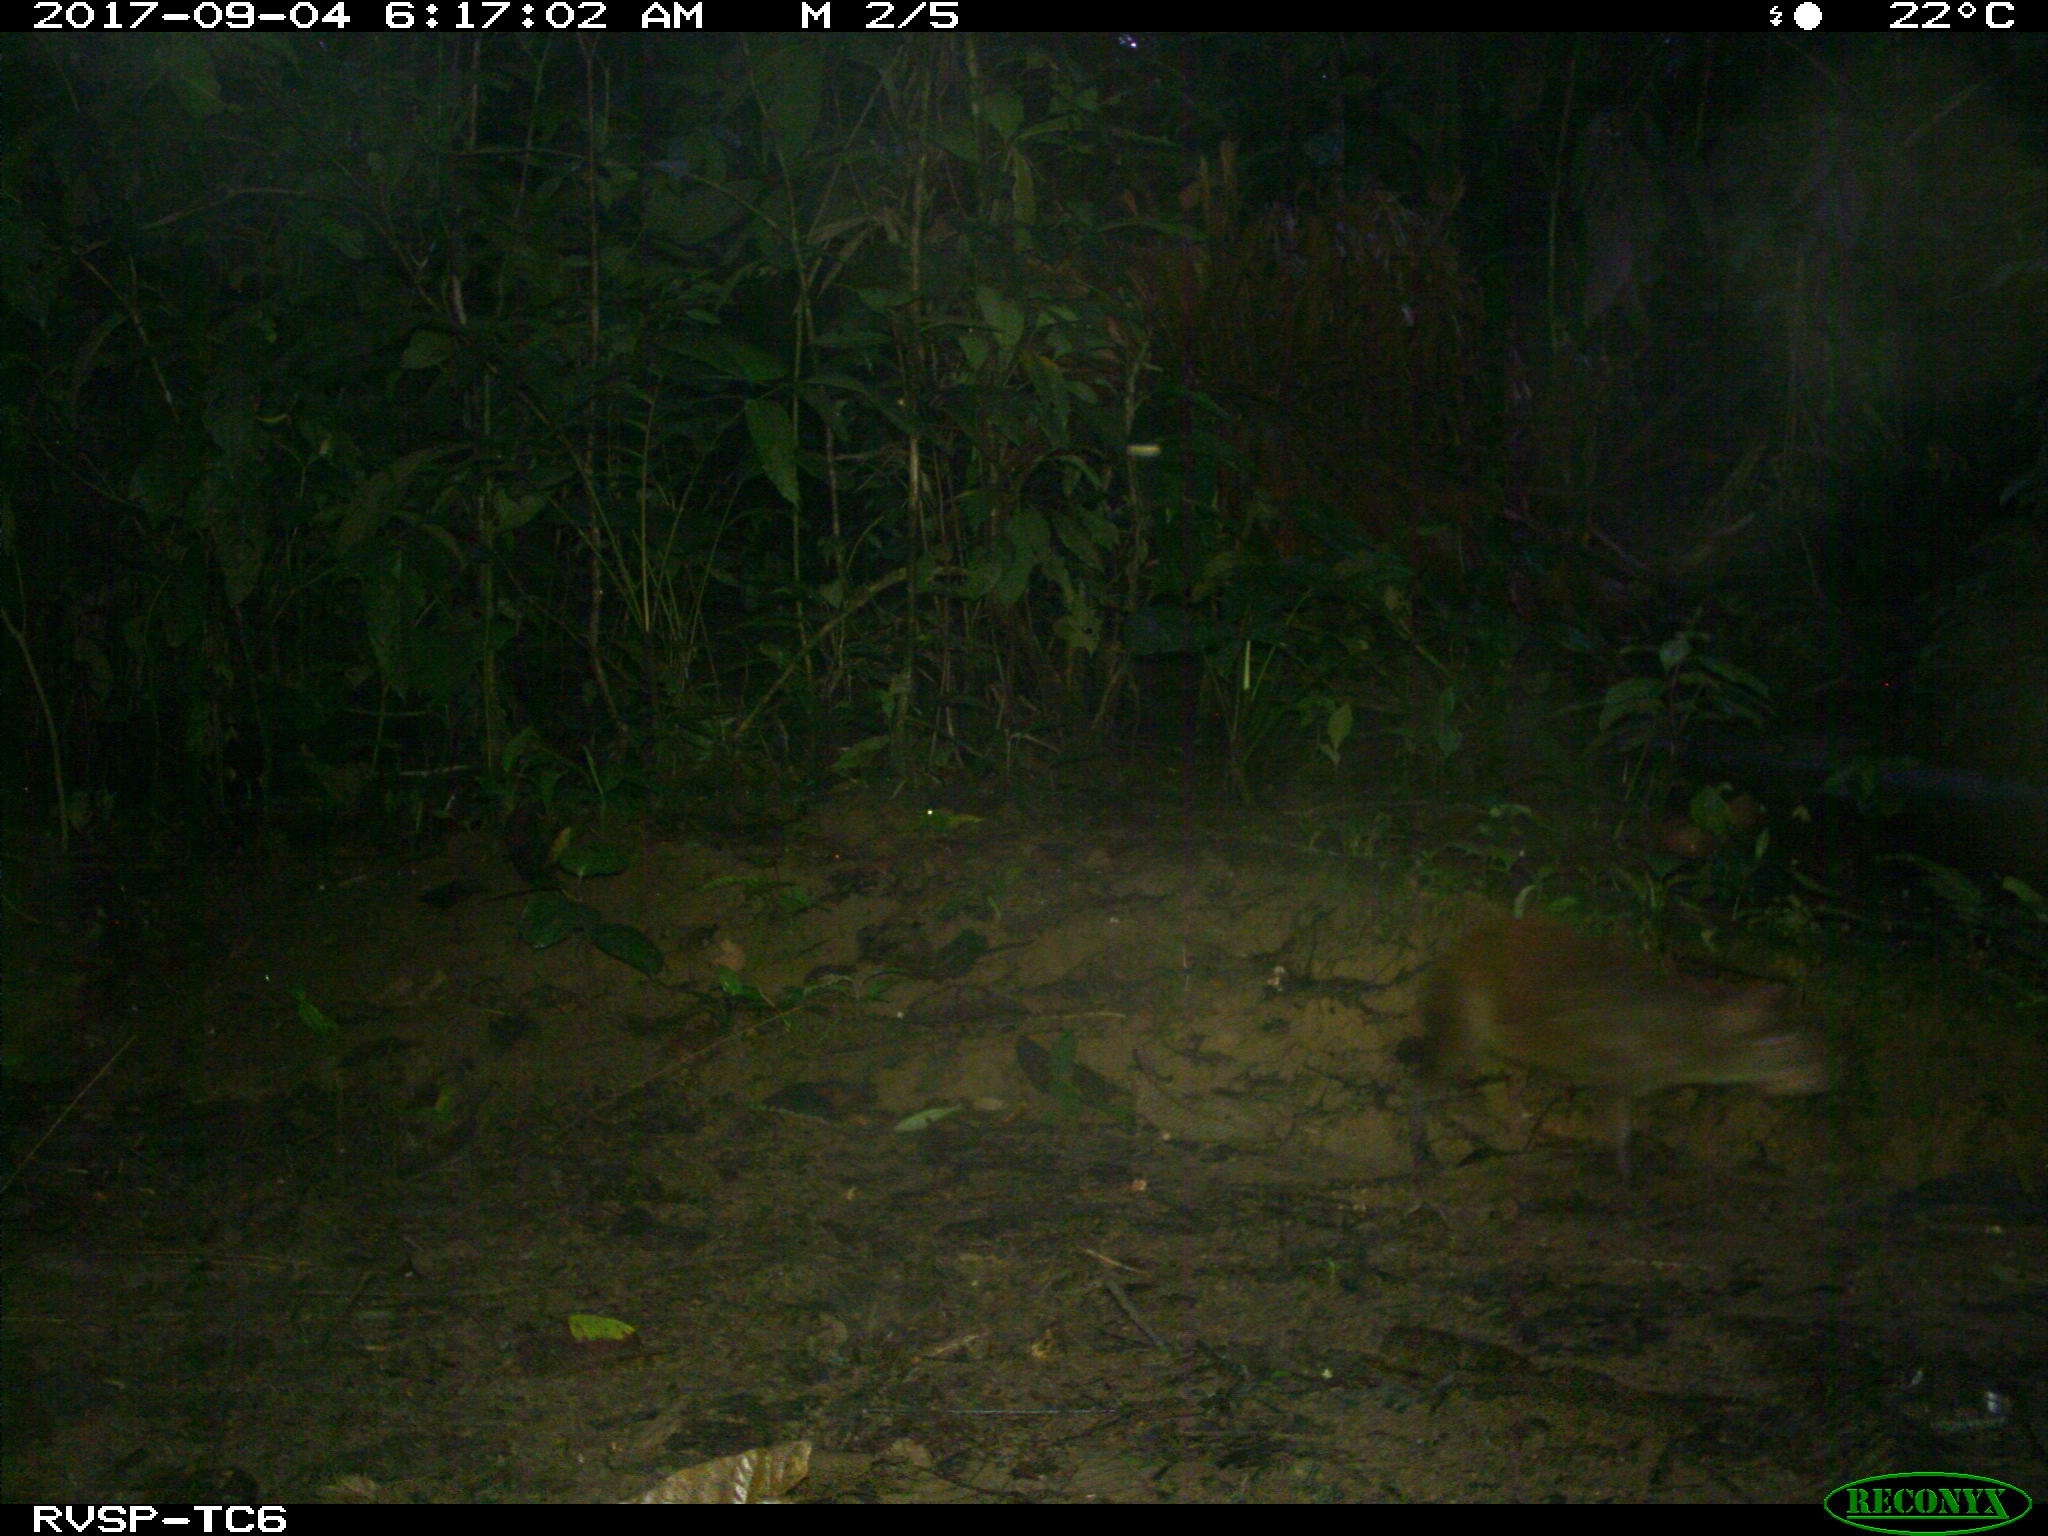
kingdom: Animalia
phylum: Chordata
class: Mammalia
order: Rodentia
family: Dasyproctidae
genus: Dasyprocta
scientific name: Dasyprocta punctata
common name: Central american agouti
